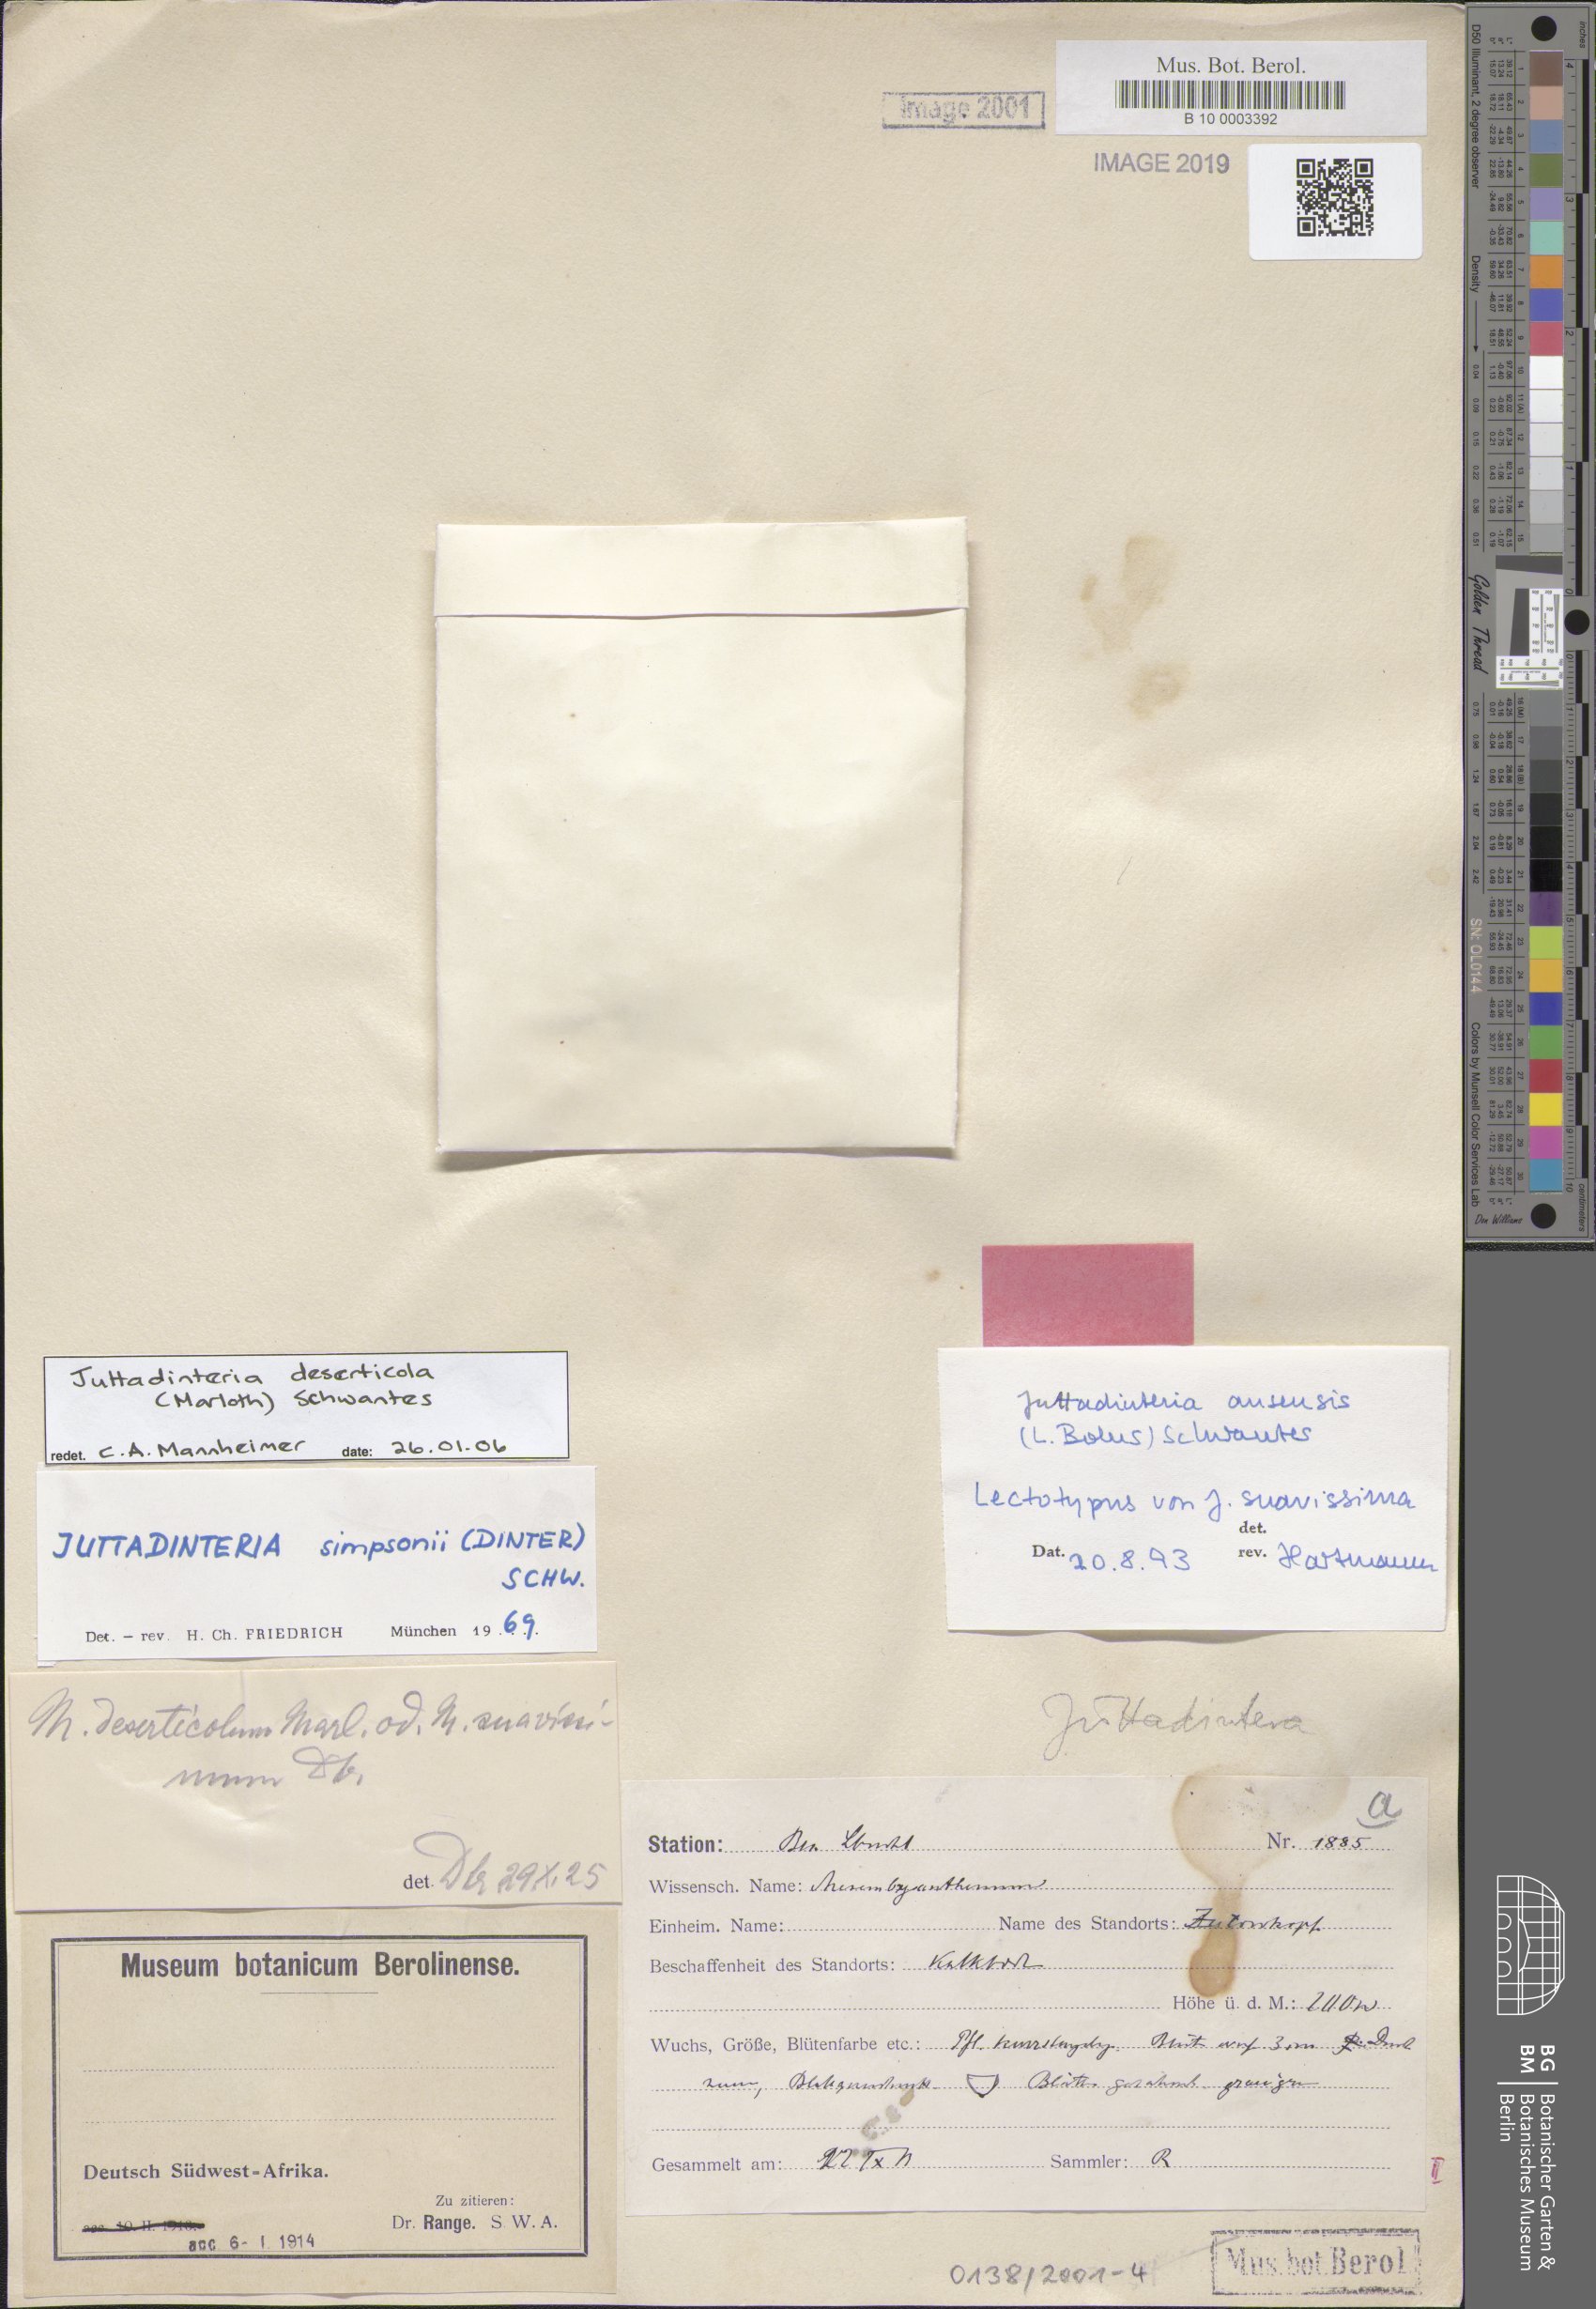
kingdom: Plantae
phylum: Tracheophyta
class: Magnoliopsida
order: Caryophyllales
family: Aizoaceae
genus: Juttadinteria
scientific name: Juttadinteria ausensis
